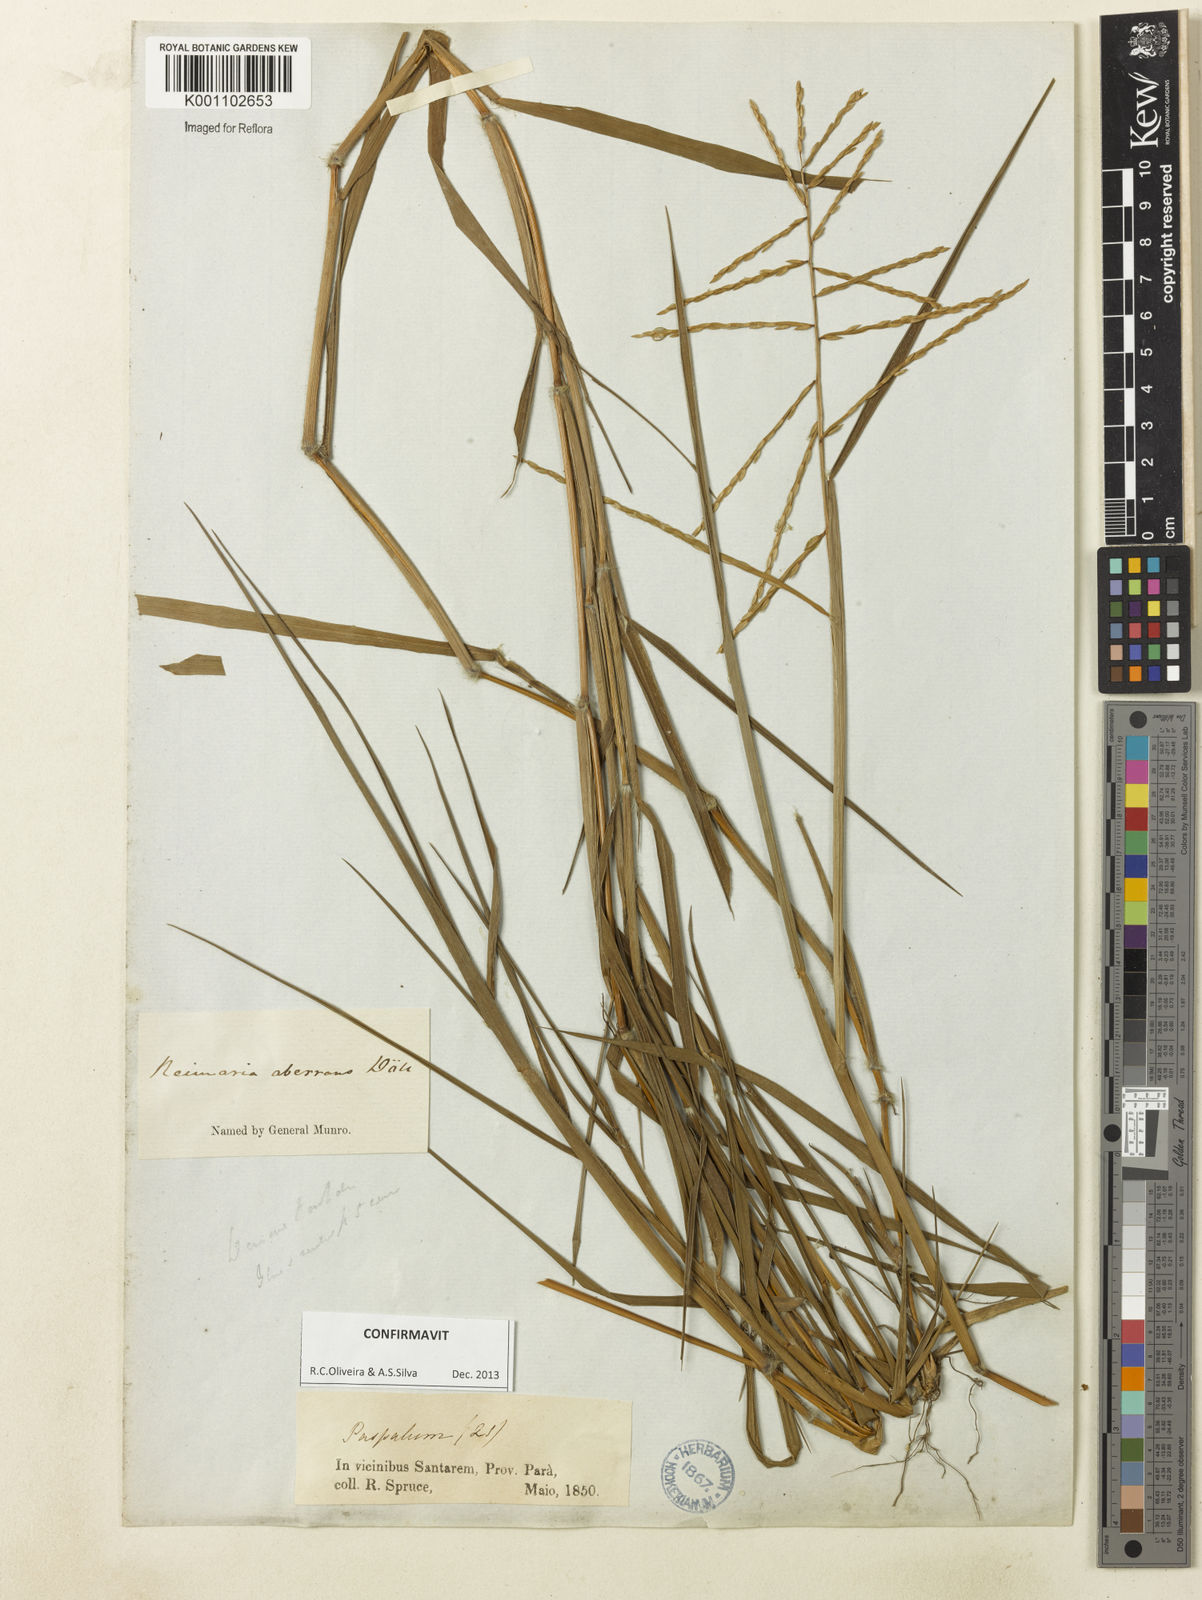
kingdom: Plantae
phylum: Tracheophyta
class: Liliopsida
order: Poales
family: Poaceae
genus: Paspalum
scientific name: Paspalum
